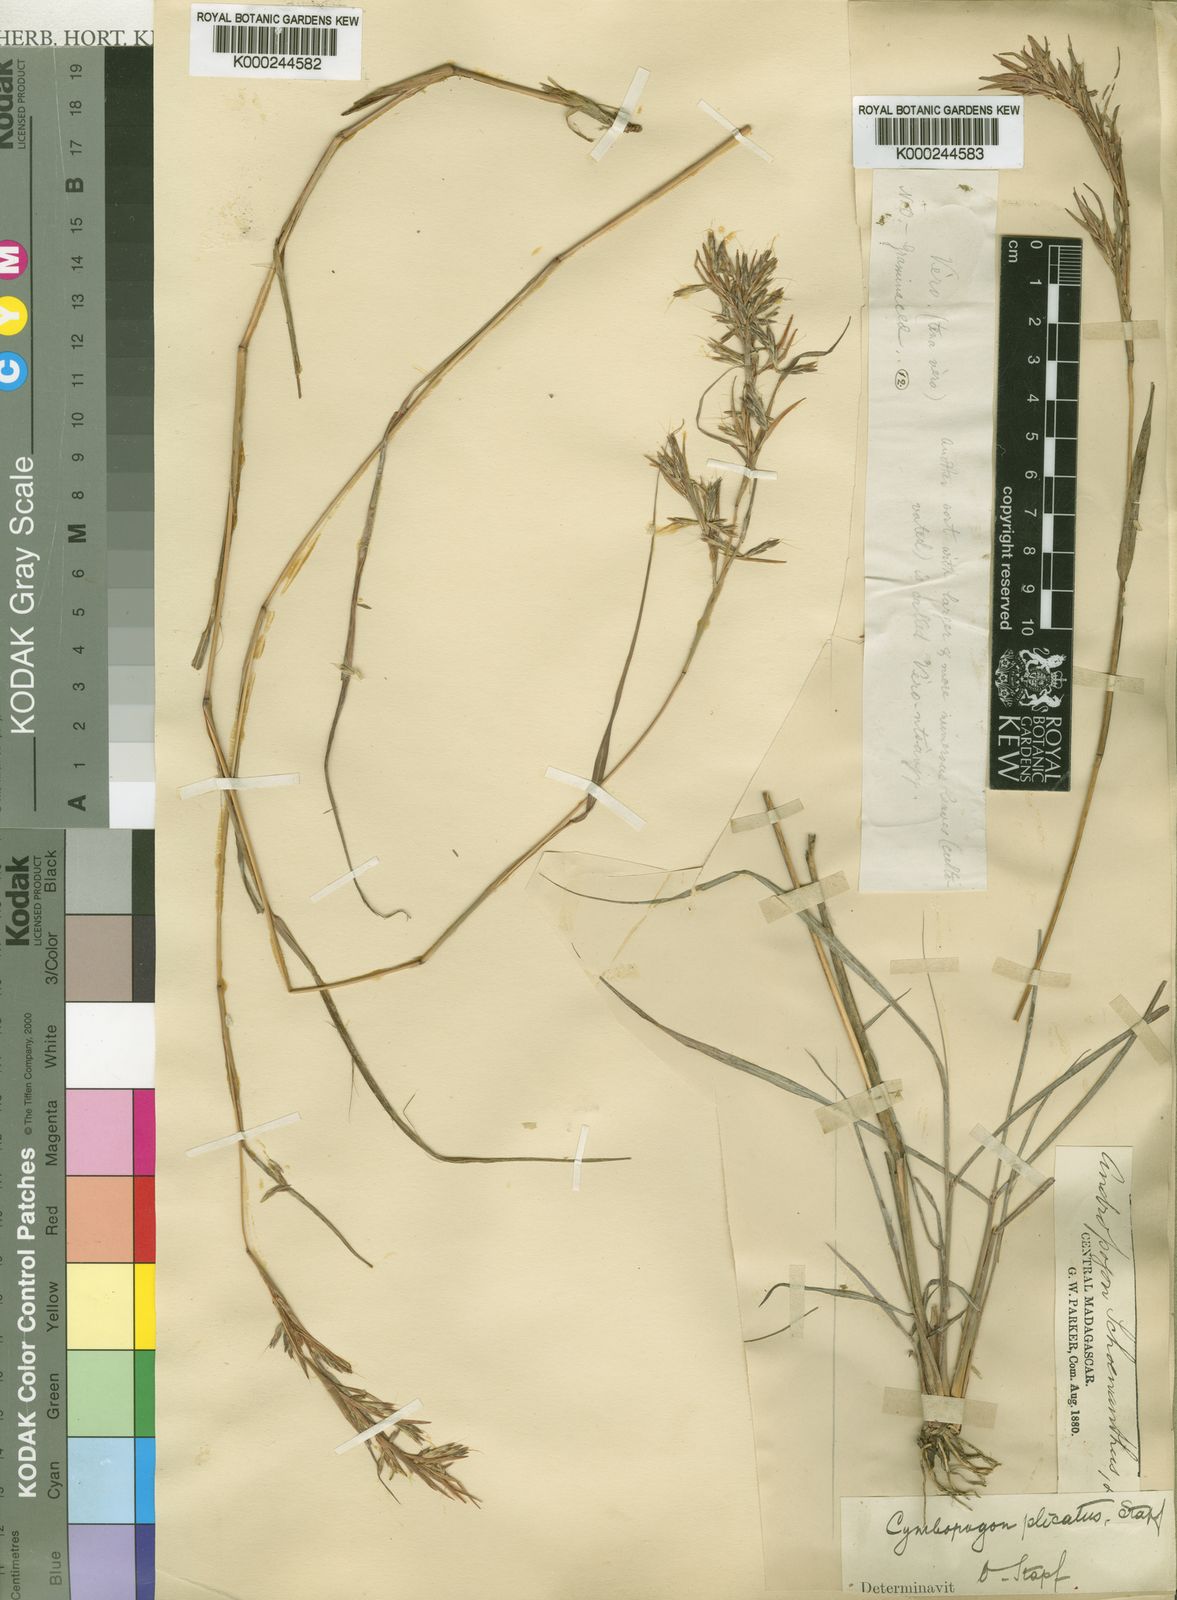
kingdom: Plantae
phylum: Tracheophyta
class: Liliopsida
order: Poales
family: Poaceae
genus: Cymbopogon
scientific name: Cymbopogon caesius
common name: Kachi grass
